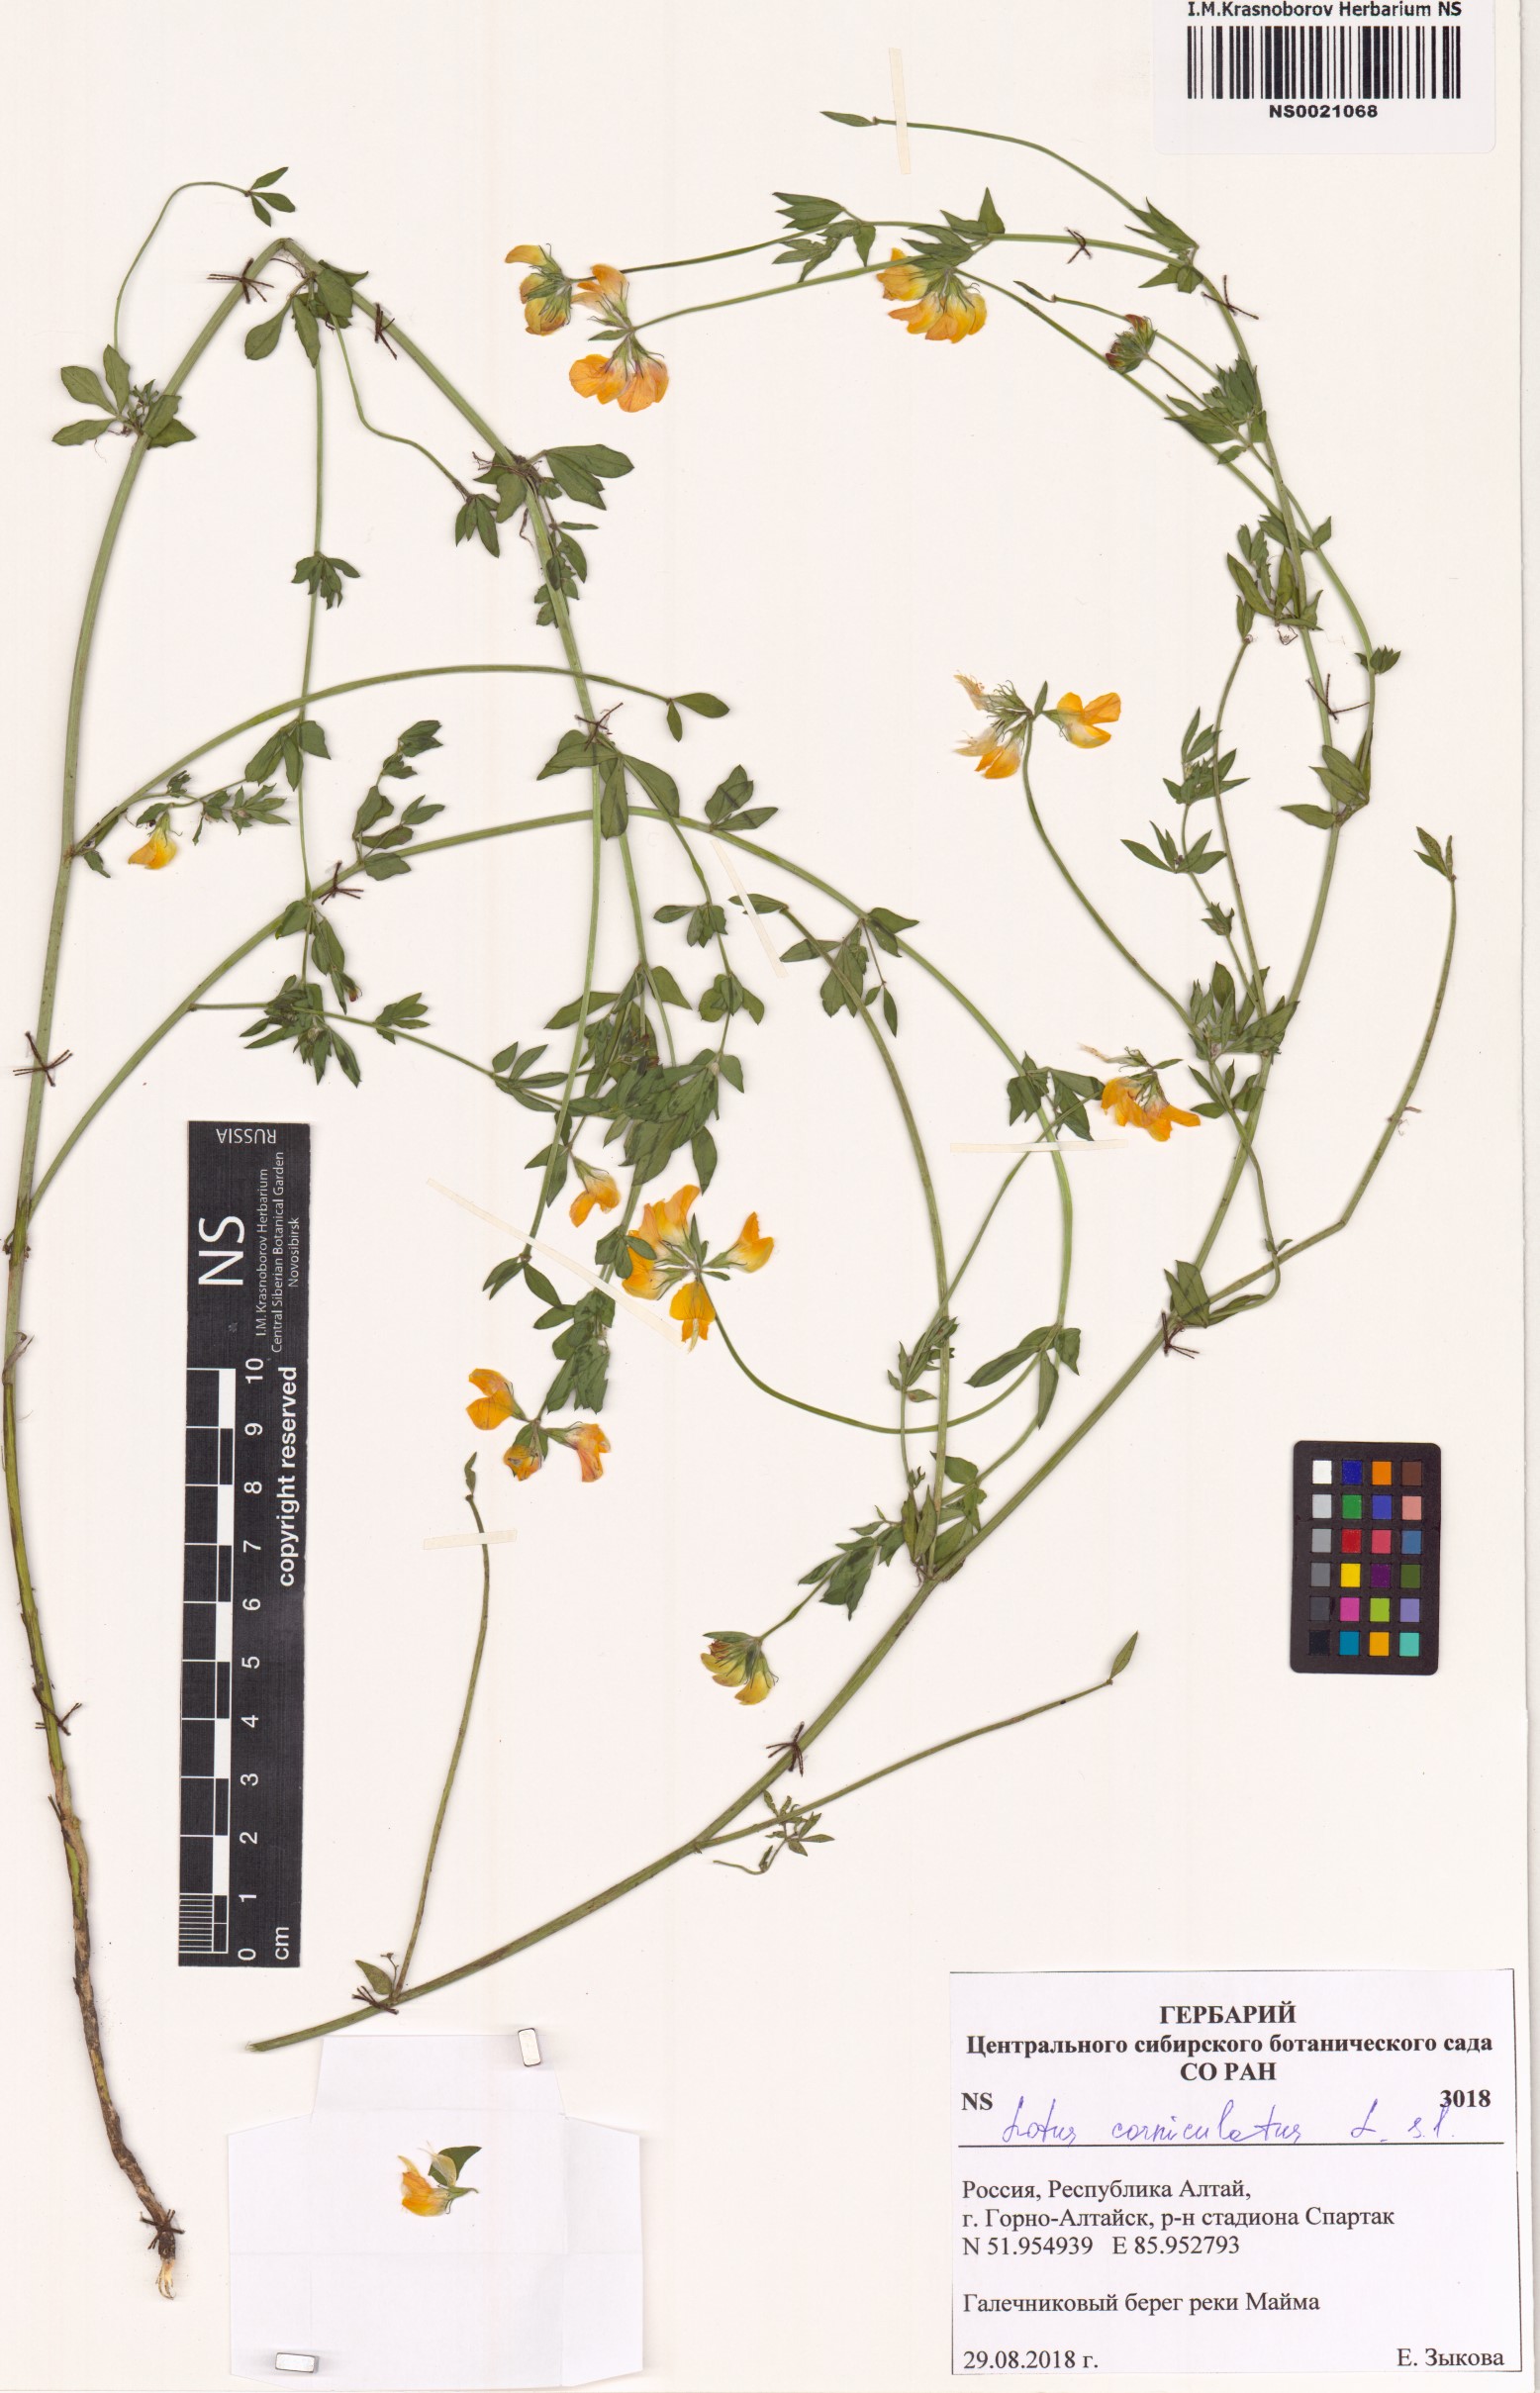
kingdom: Plantae
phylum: Tracheophyta
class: Magnoliopsida
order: Fabales
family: Fabaceae
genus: Lotus
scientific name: Lotus corniculatus
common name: Common bird's-foot-trefoil
